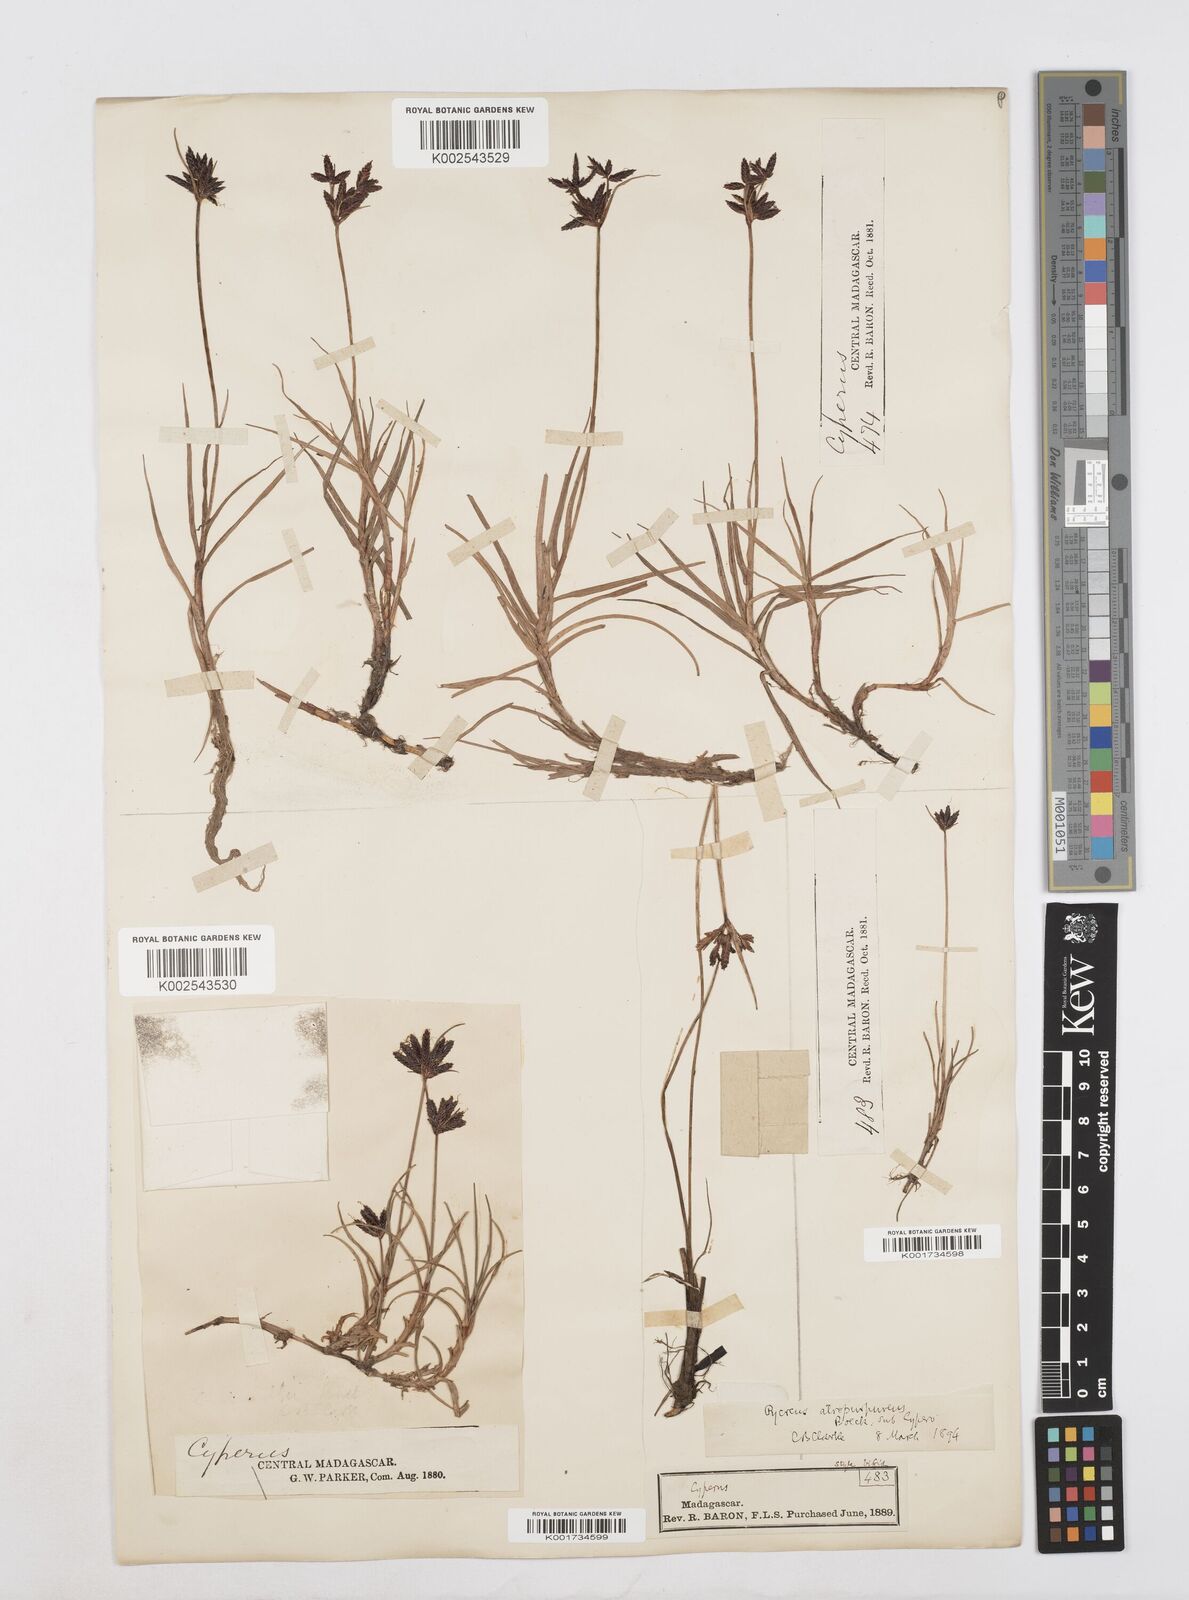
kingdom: Plantae
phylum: Tracheophyta
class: Liliopsida
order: Poales
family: Cyperaceae
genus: Cyperus
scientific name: Cyperus chermezonii
